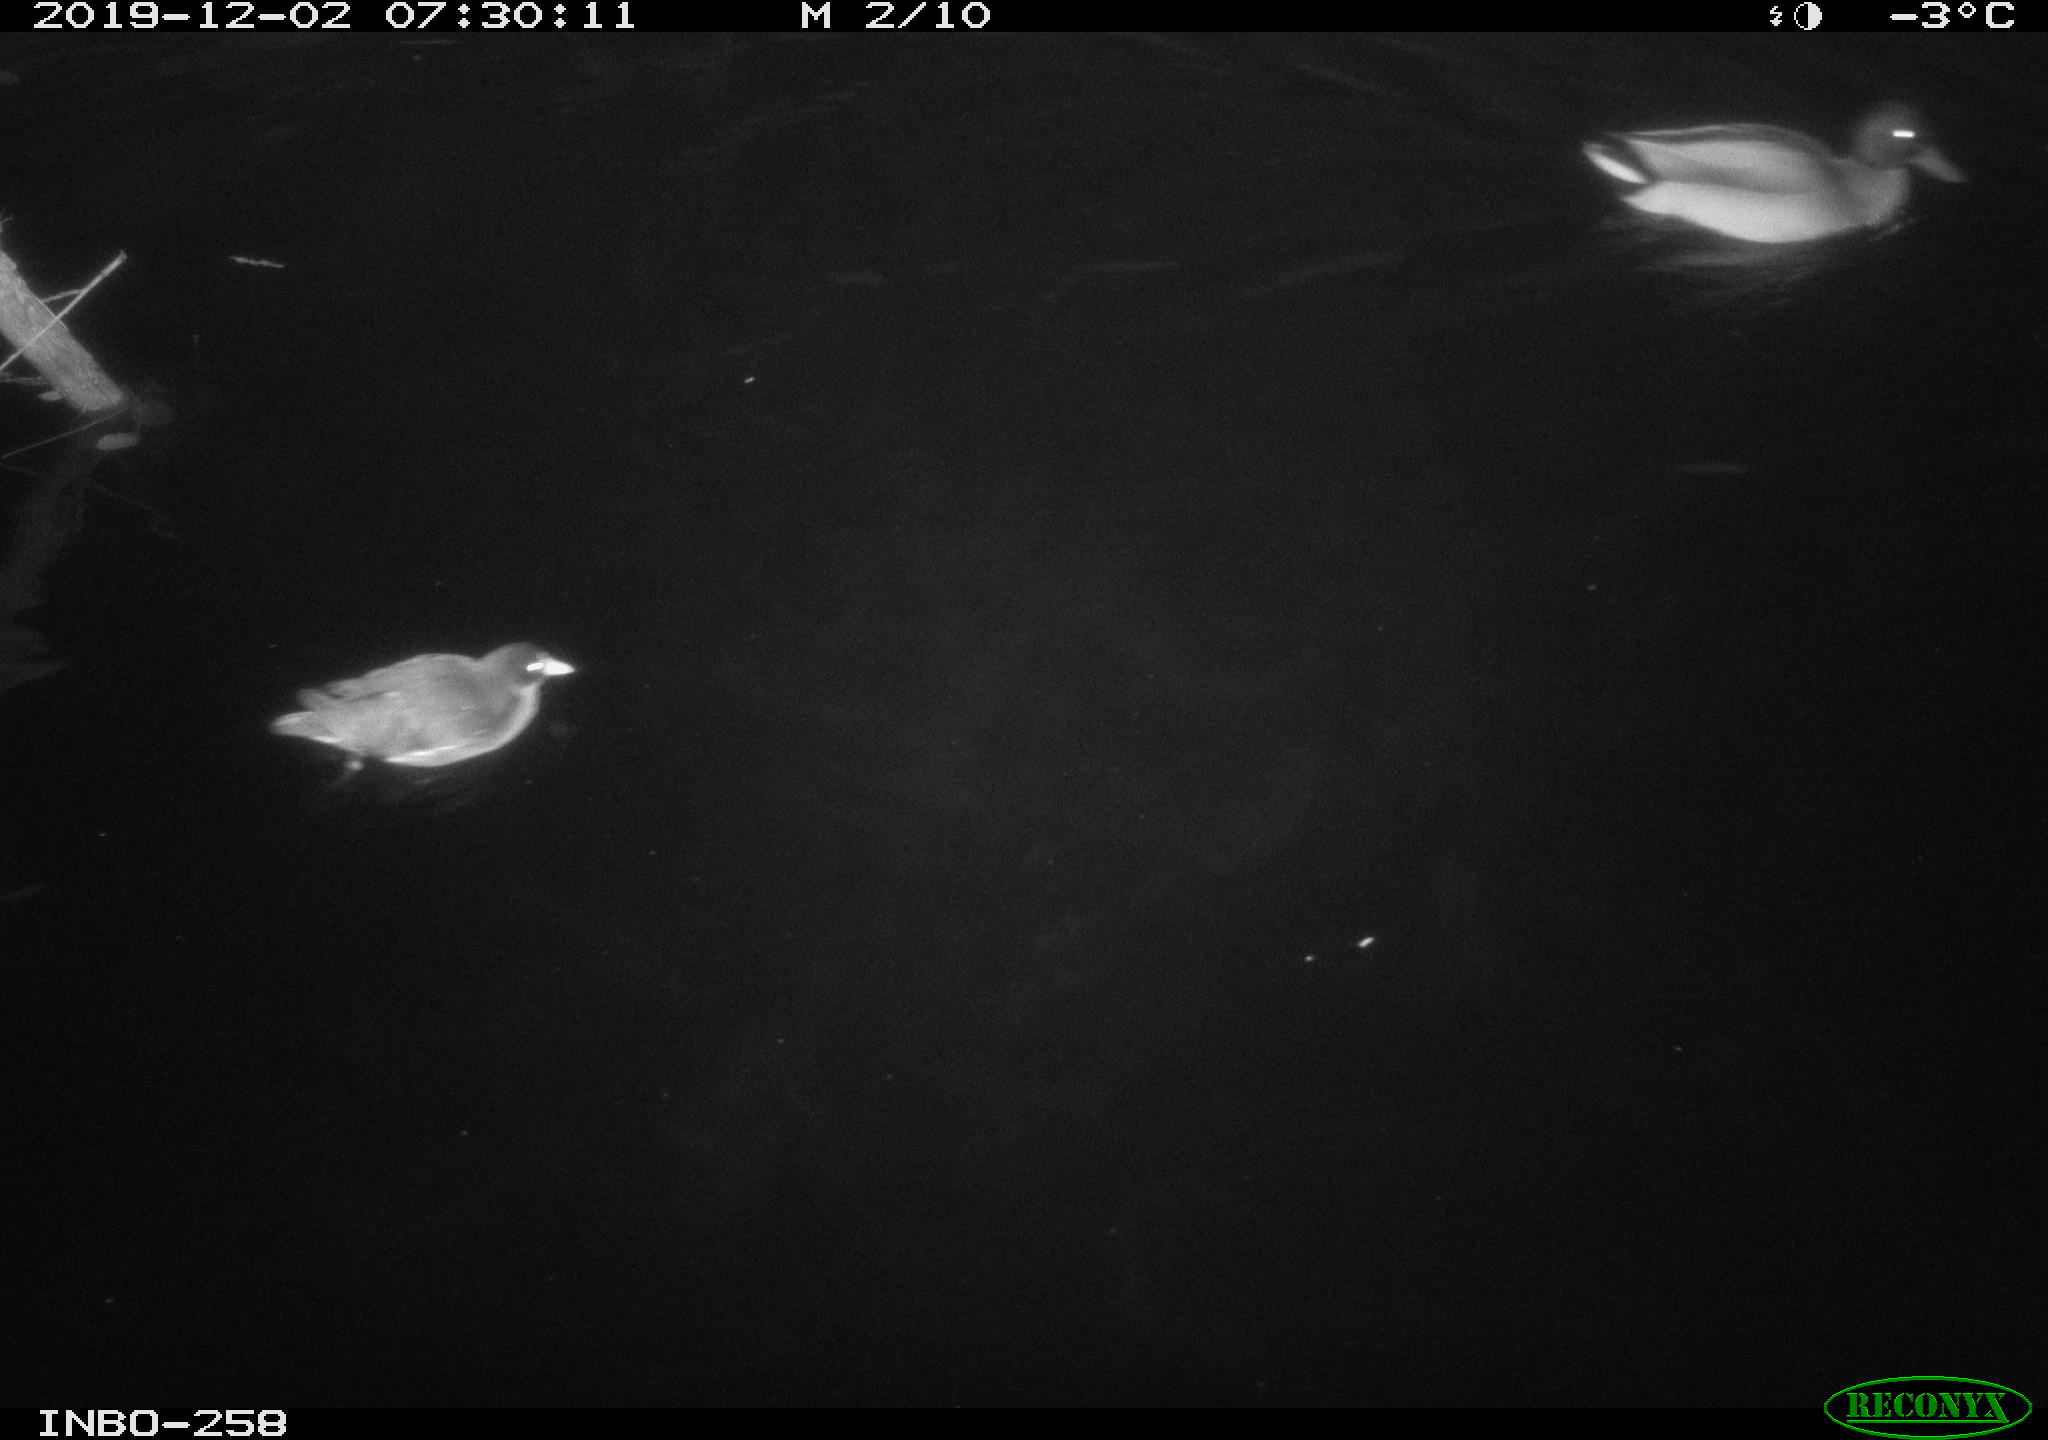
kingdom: Animalia
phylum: Chordata
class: Aves
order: Anseriformes
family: Anatidae
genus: Anas
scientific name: Anas platyrhynchos
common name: Mallard
